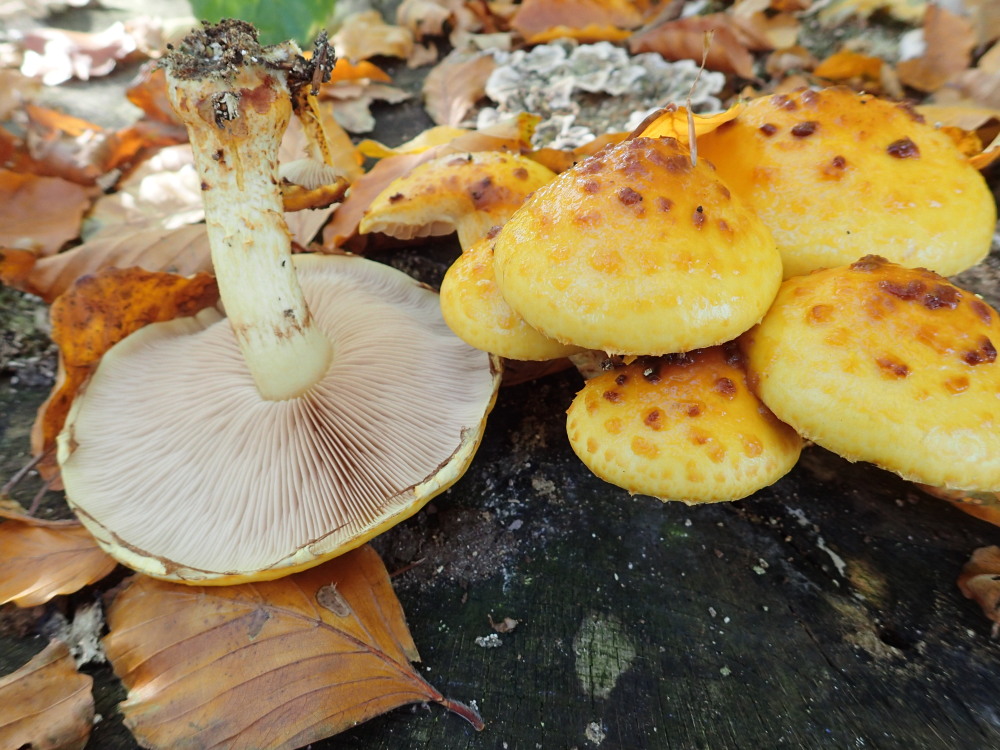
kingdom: Fungi
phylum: Basidiomycota
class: Agaricomycetes
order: Agaricales
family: Strophariaceae
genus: Pholiota
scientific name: Pholiota adiposa
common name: højtsiddende skælhat
